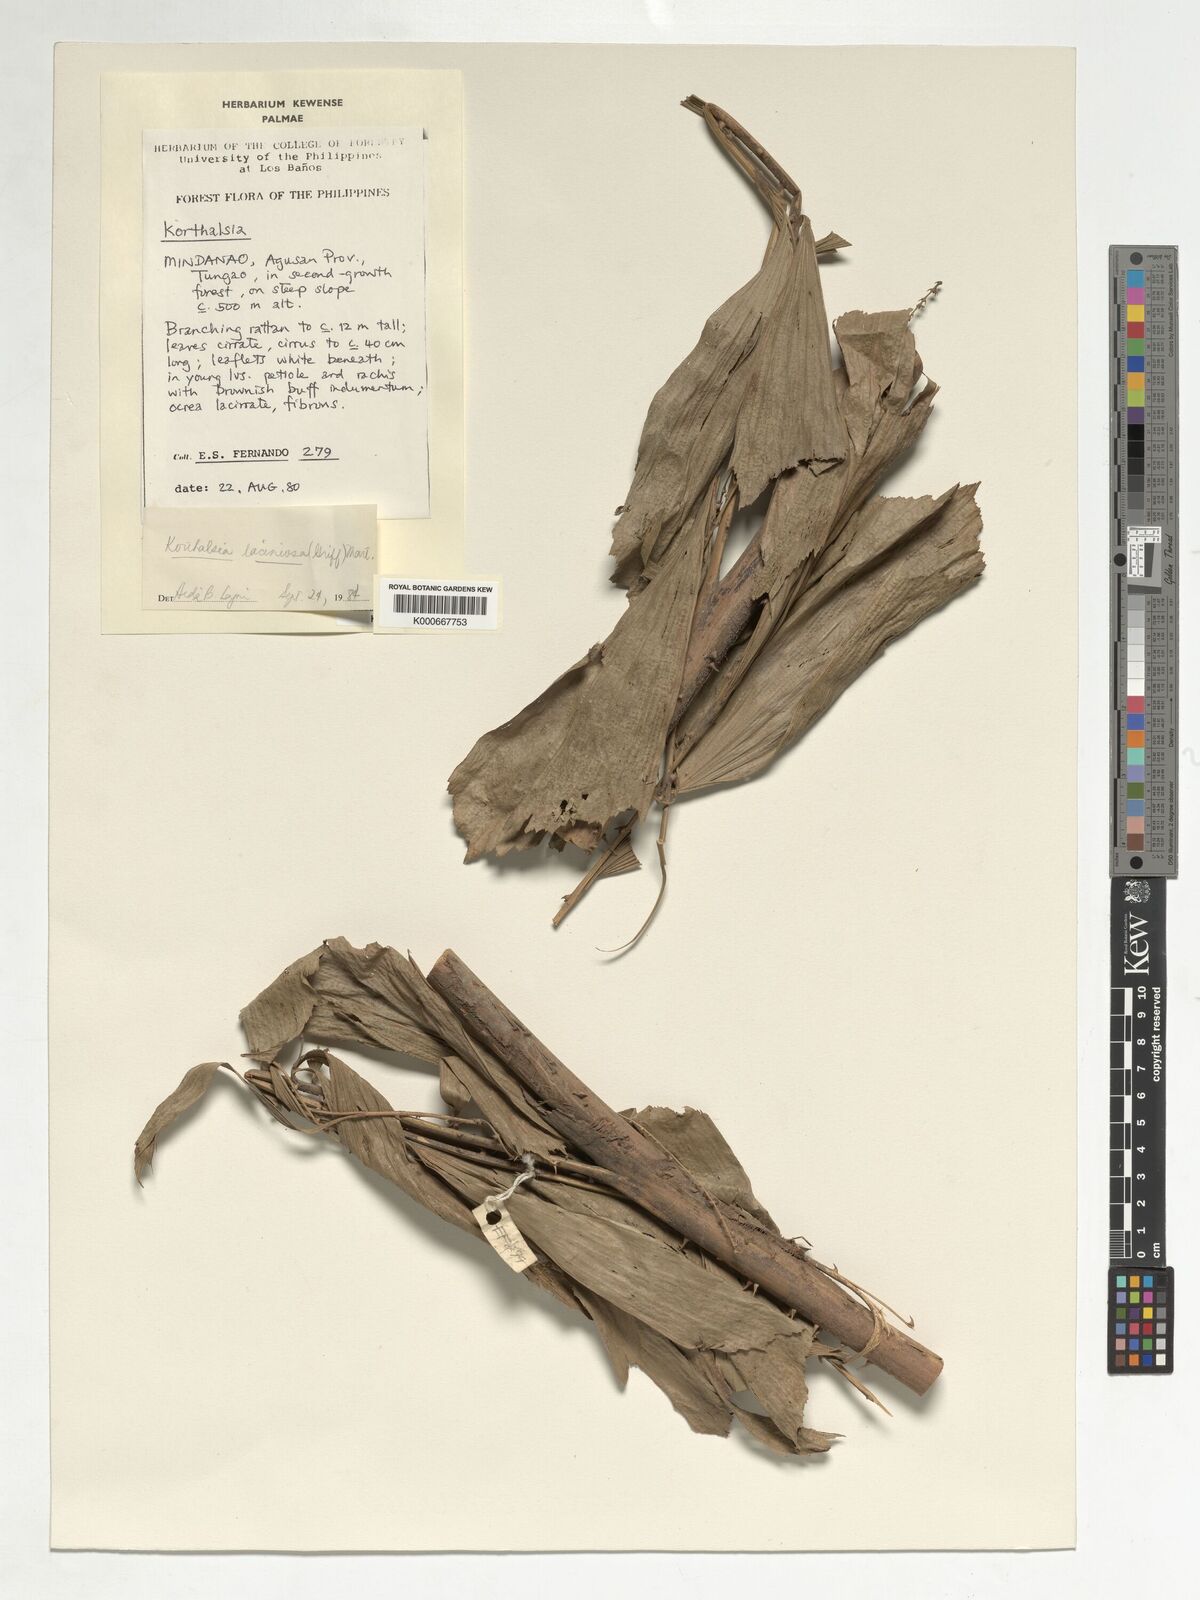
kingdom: Plantae
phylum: Tracheophyta
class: Liliopsida
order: Arecales
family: Arecaceae
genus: Korthalsia
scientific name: Korthalsia laciniosa
